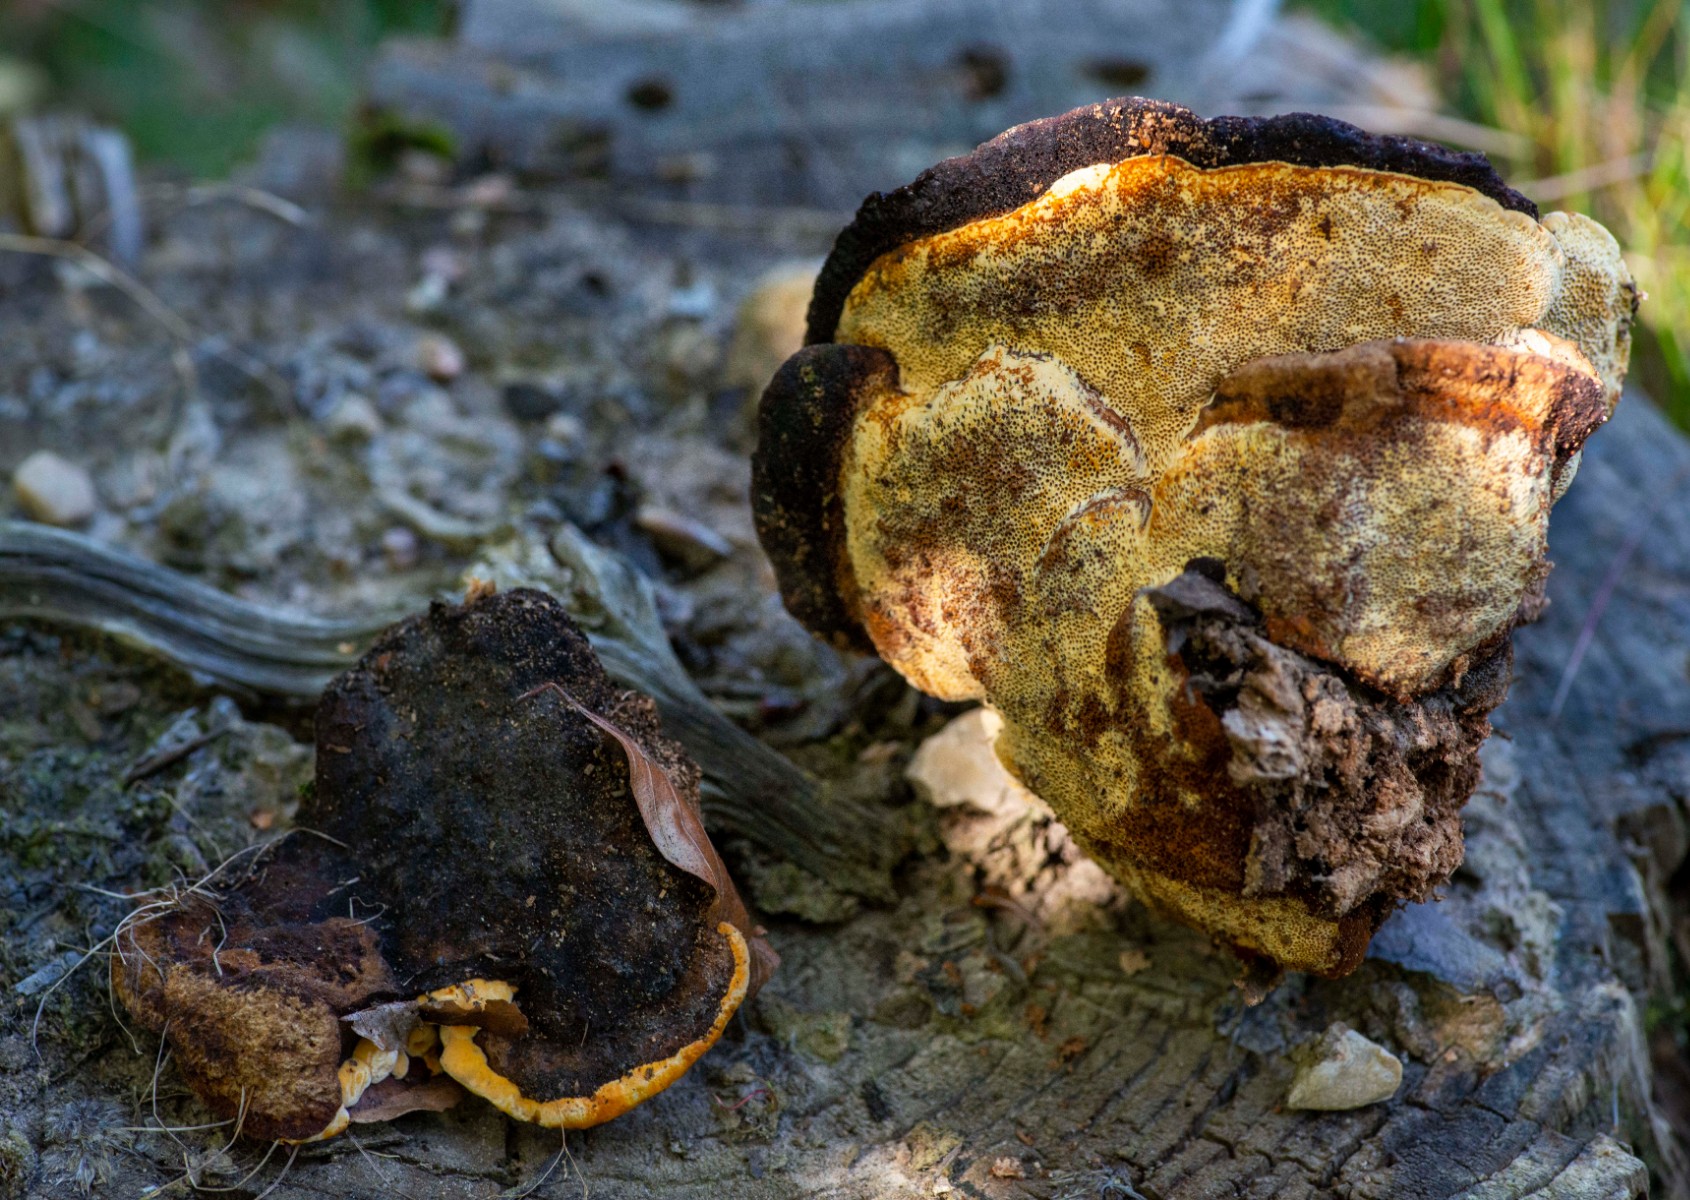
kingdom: Fungi
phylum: Basidiomycota
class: Agaricomycetes
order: Gloeophyllales
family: Gloeophyllaceae
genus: Gloeophyllum
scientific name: Gloeophyllum odoratum
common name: duftende korkhat
